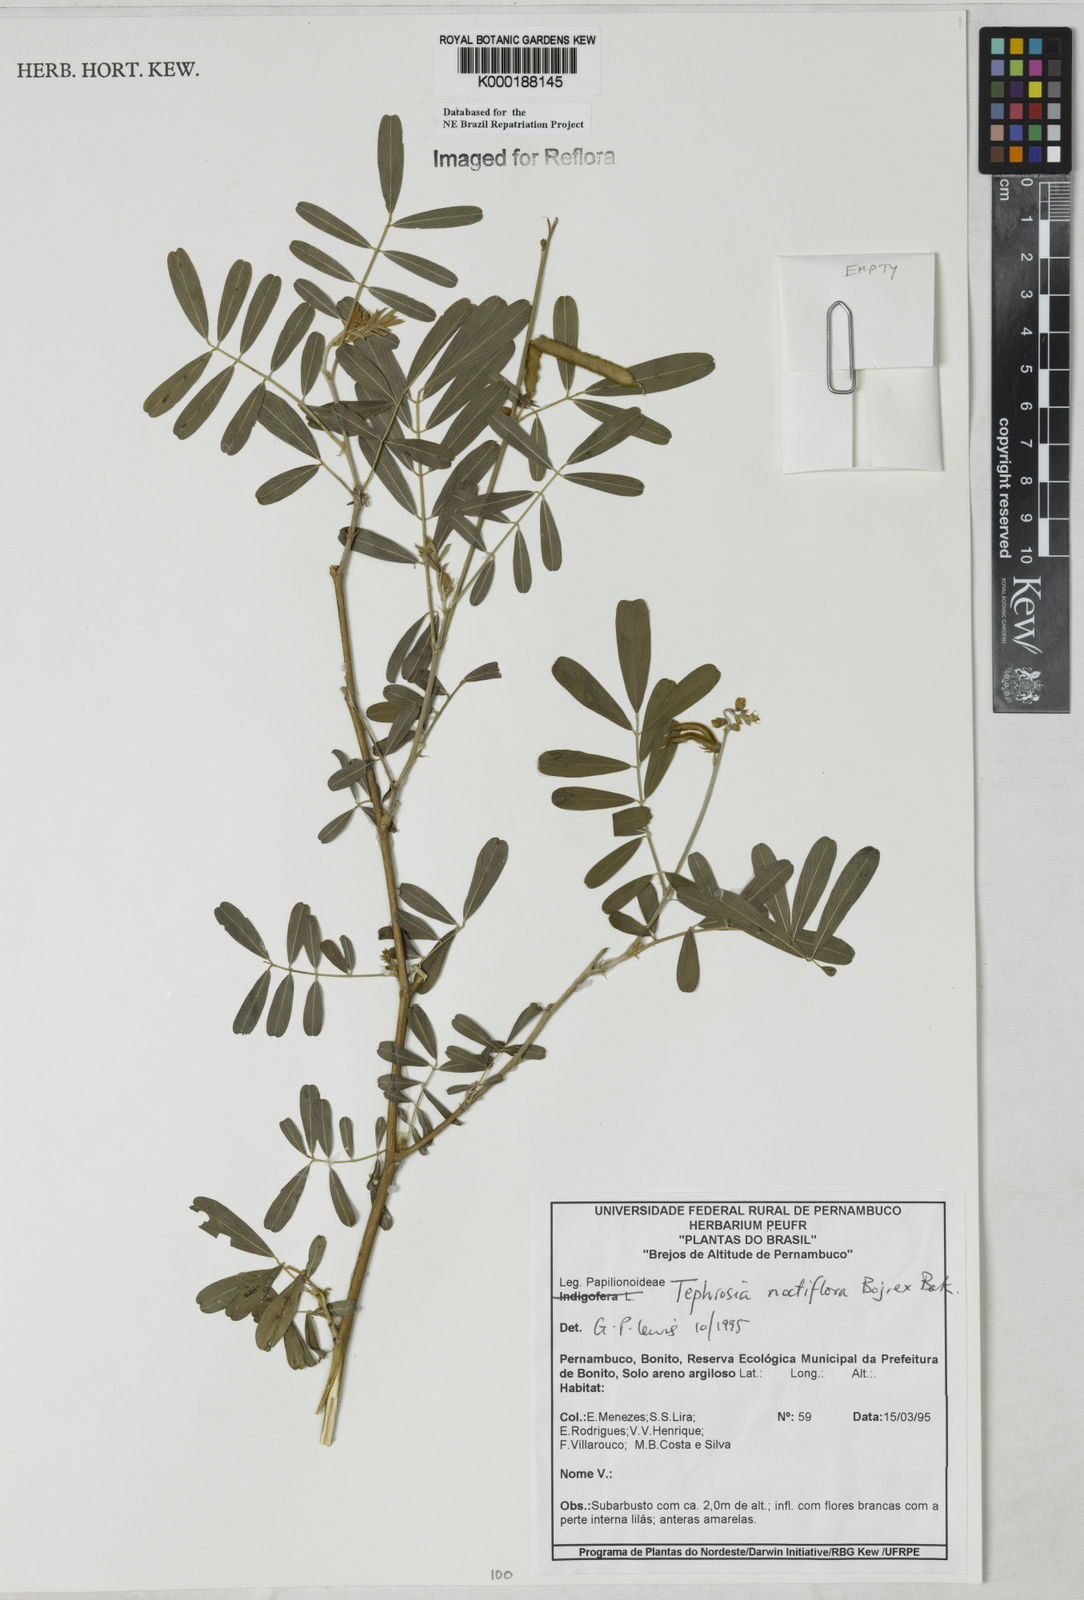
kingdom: Plantae
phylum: Tracheophyta
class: Magnoliopsida
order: Fabales
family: Fabaceae
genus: Tephrosia
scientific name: Tephrosia
